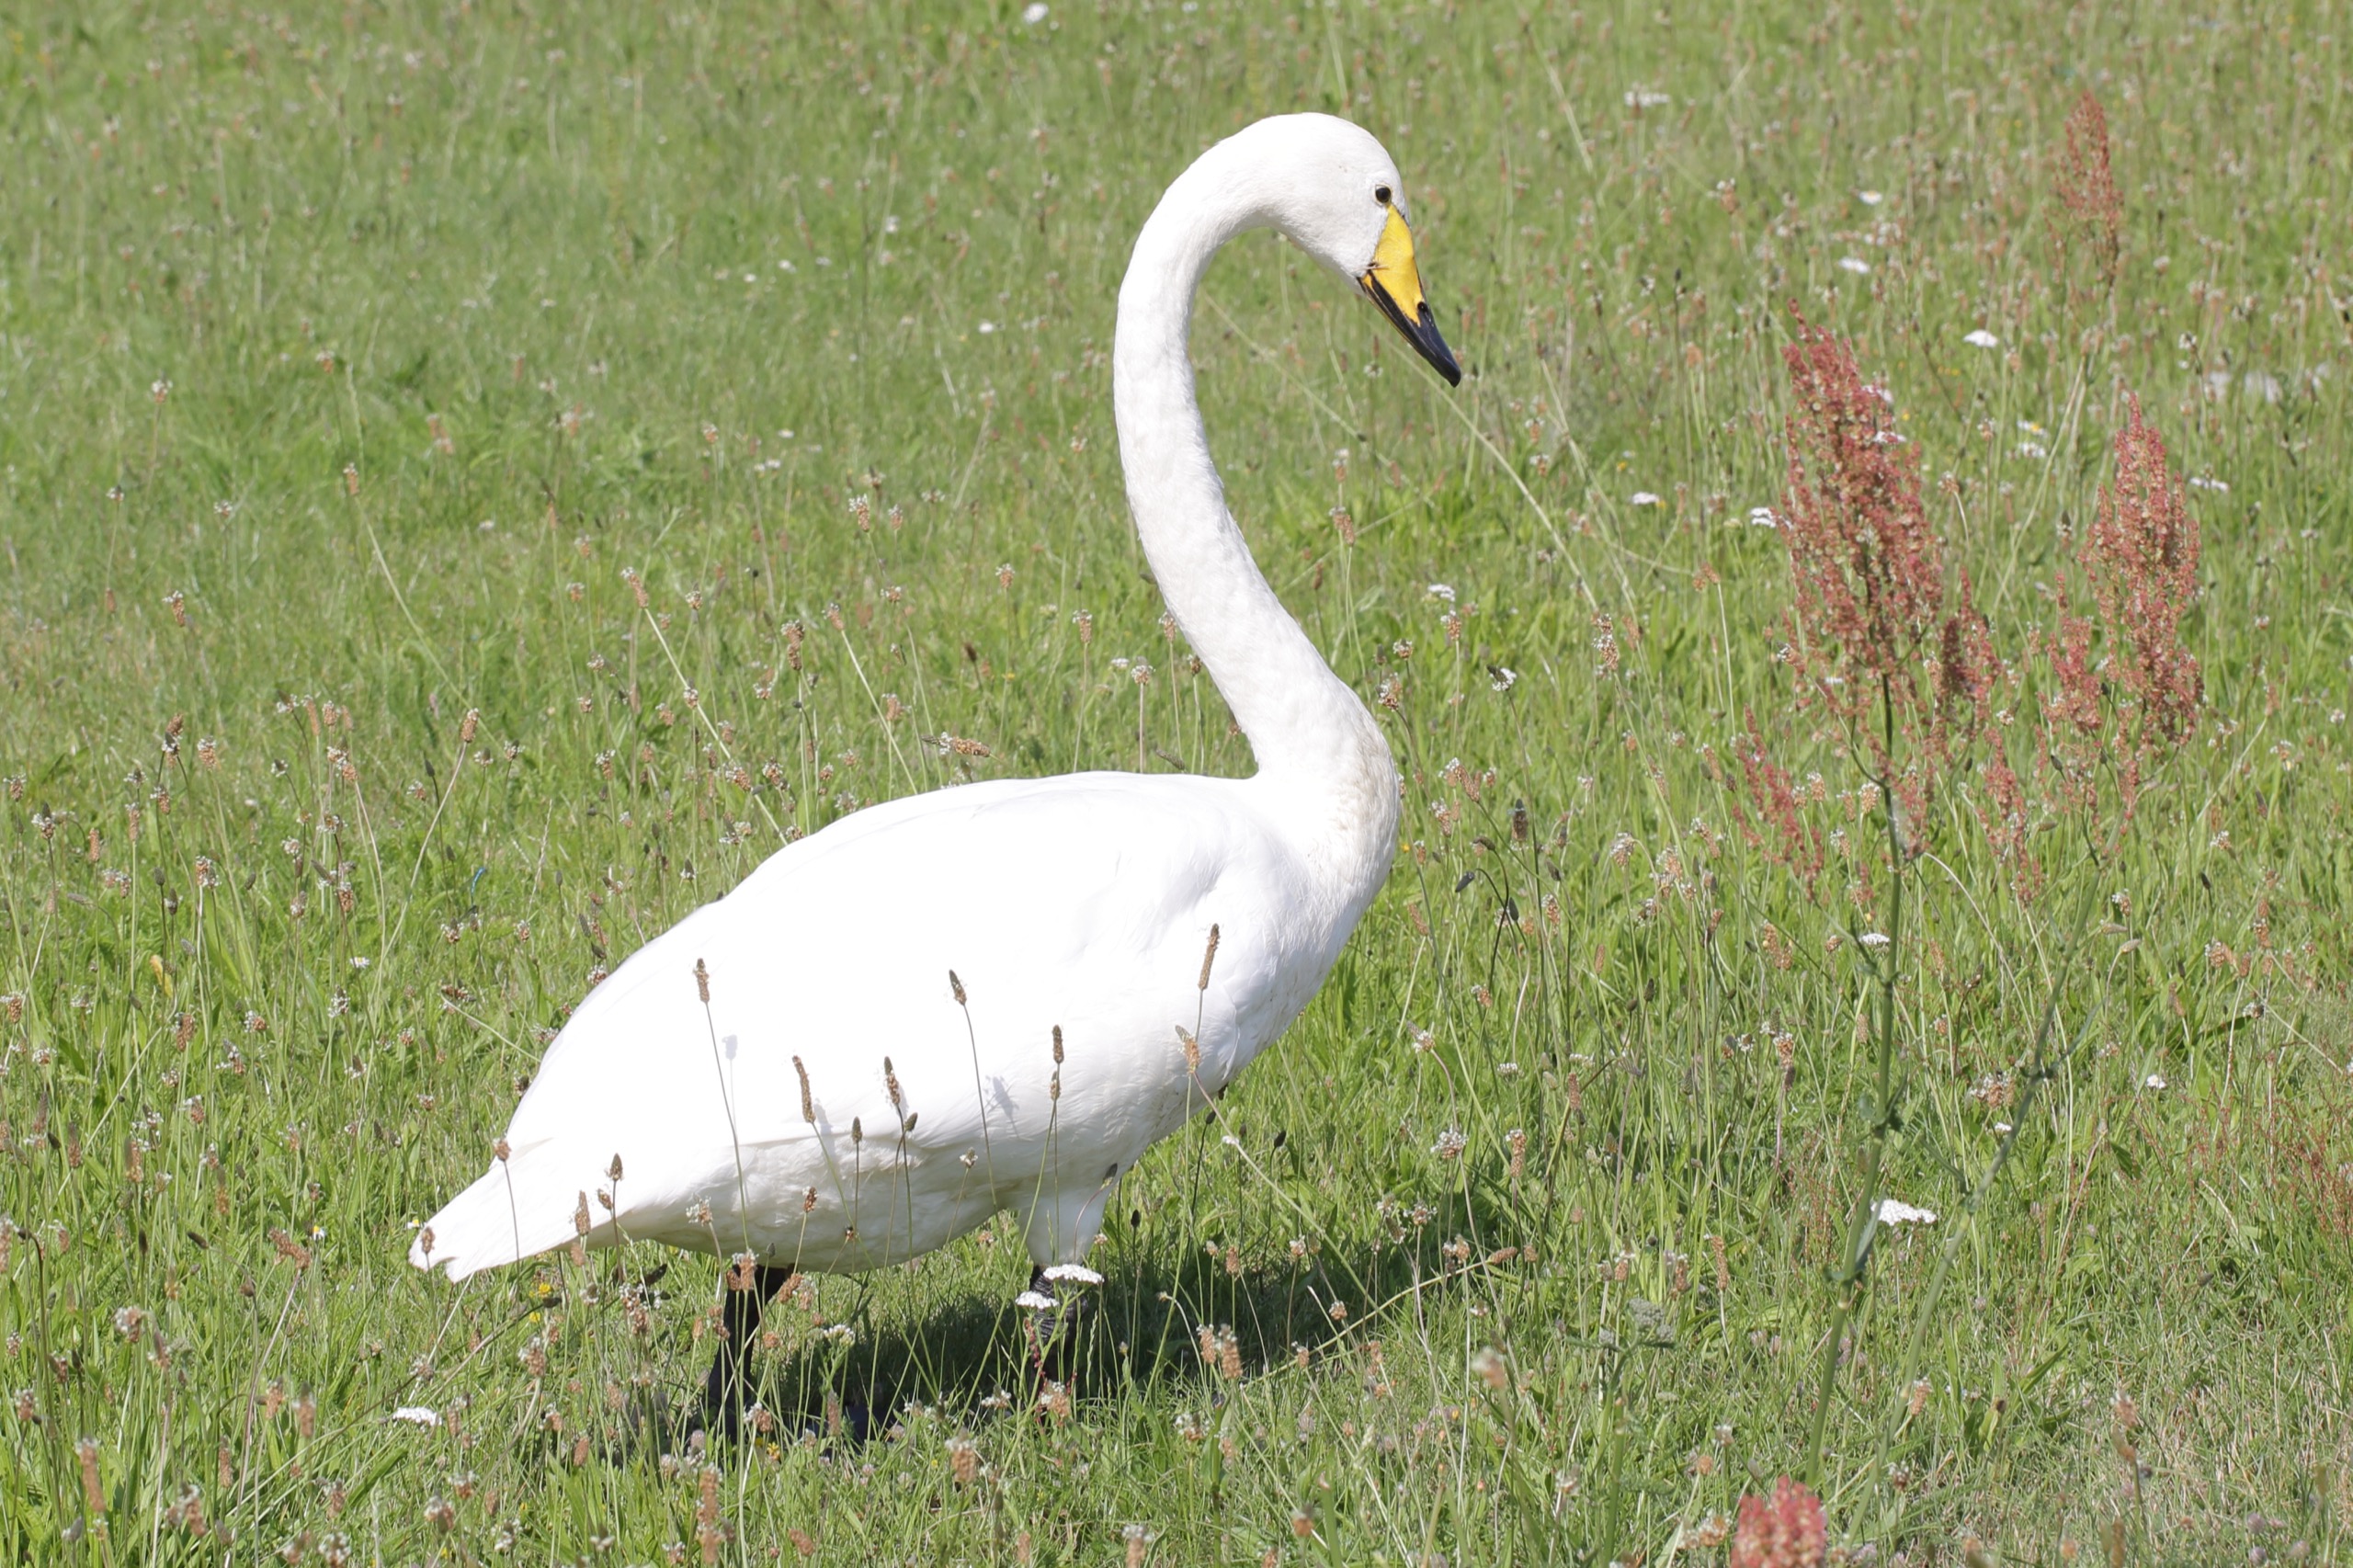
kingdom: Animalia
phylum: Chordata
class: Aves
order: Anseriformes
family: Anatidae
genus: Cygnus
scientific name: Cygnus cygnus
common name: Sangsvane
